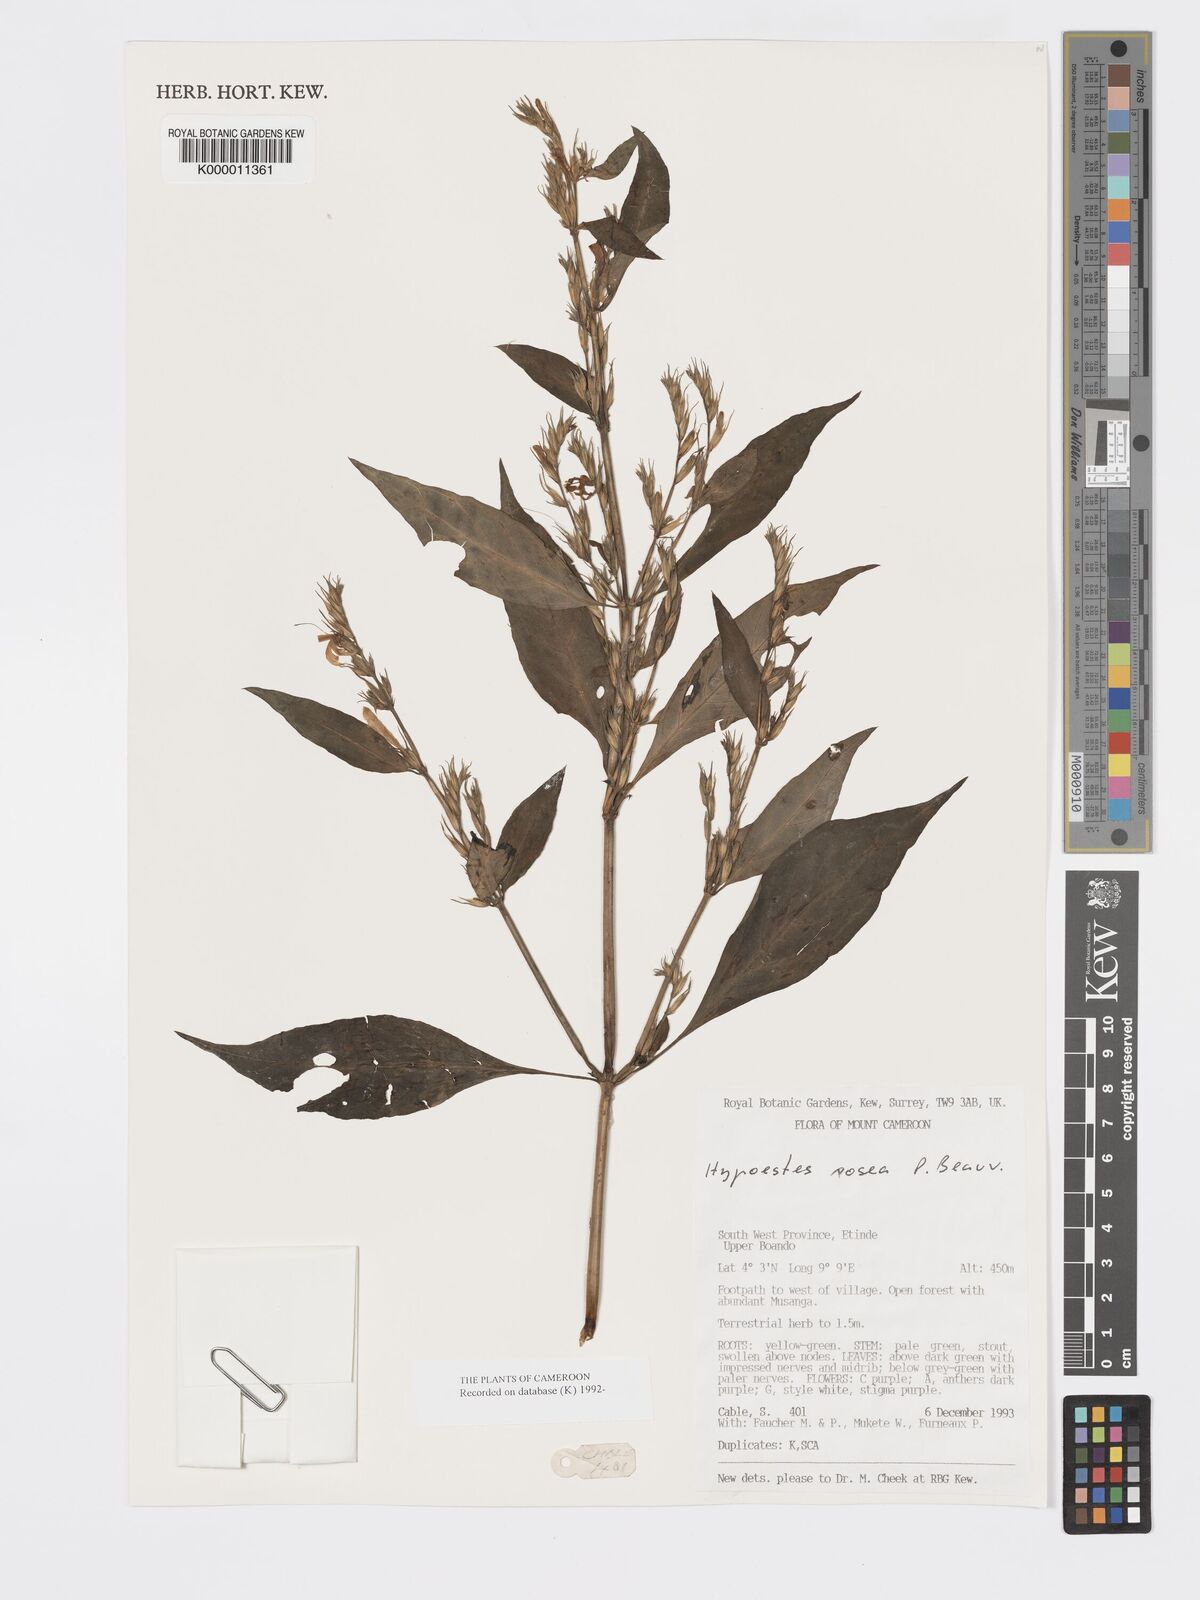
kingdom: Plantae
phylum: Tracheophyta
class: Magnoliopsida
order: Lamiales
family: Acanthaceae
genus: Hypoestes
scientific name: Hypoestes rosea
